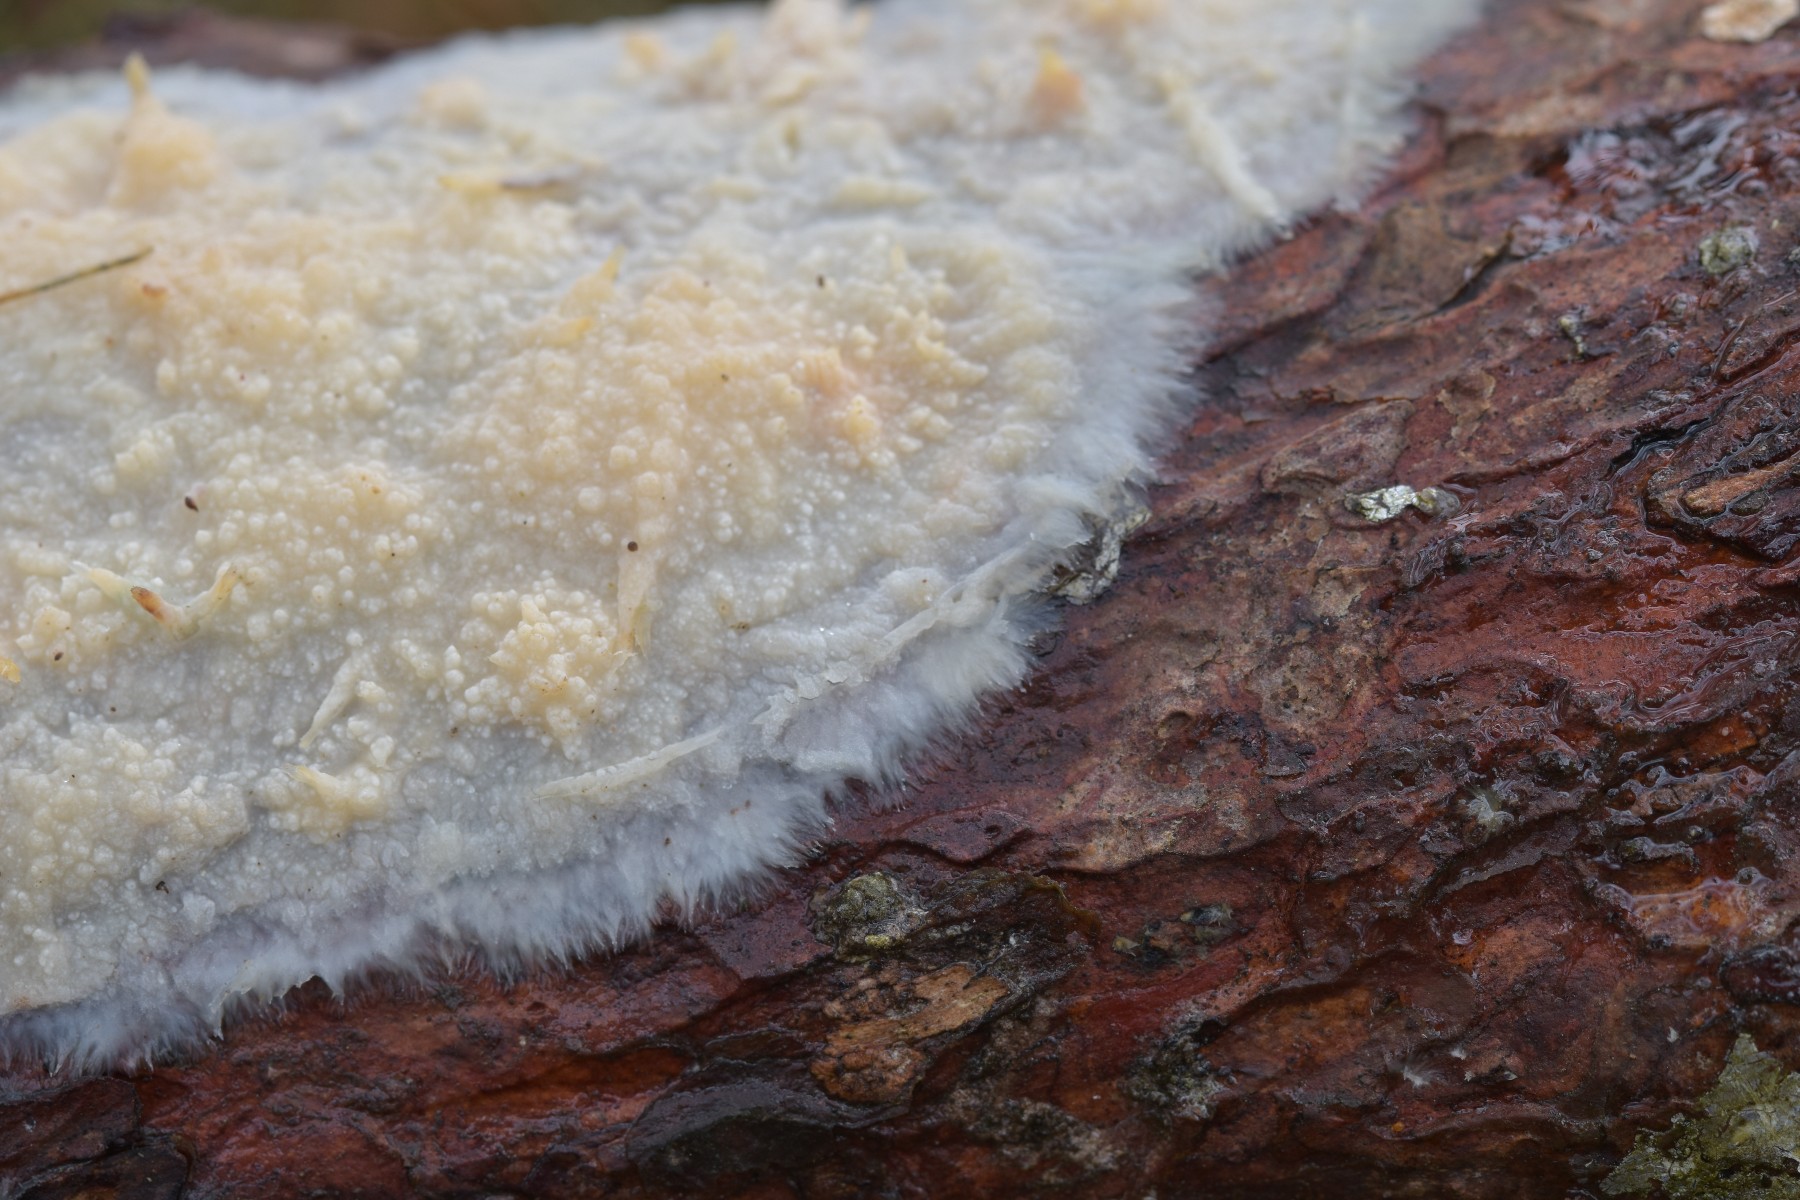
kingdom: Fungi
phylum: Basidiomycota
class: Agaricomycetes
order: Polyporales
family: Phanerochaetaceae
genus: Phlebiopsis
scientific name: Phlebiopsis gigantea
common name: kæmpebarksvamp
